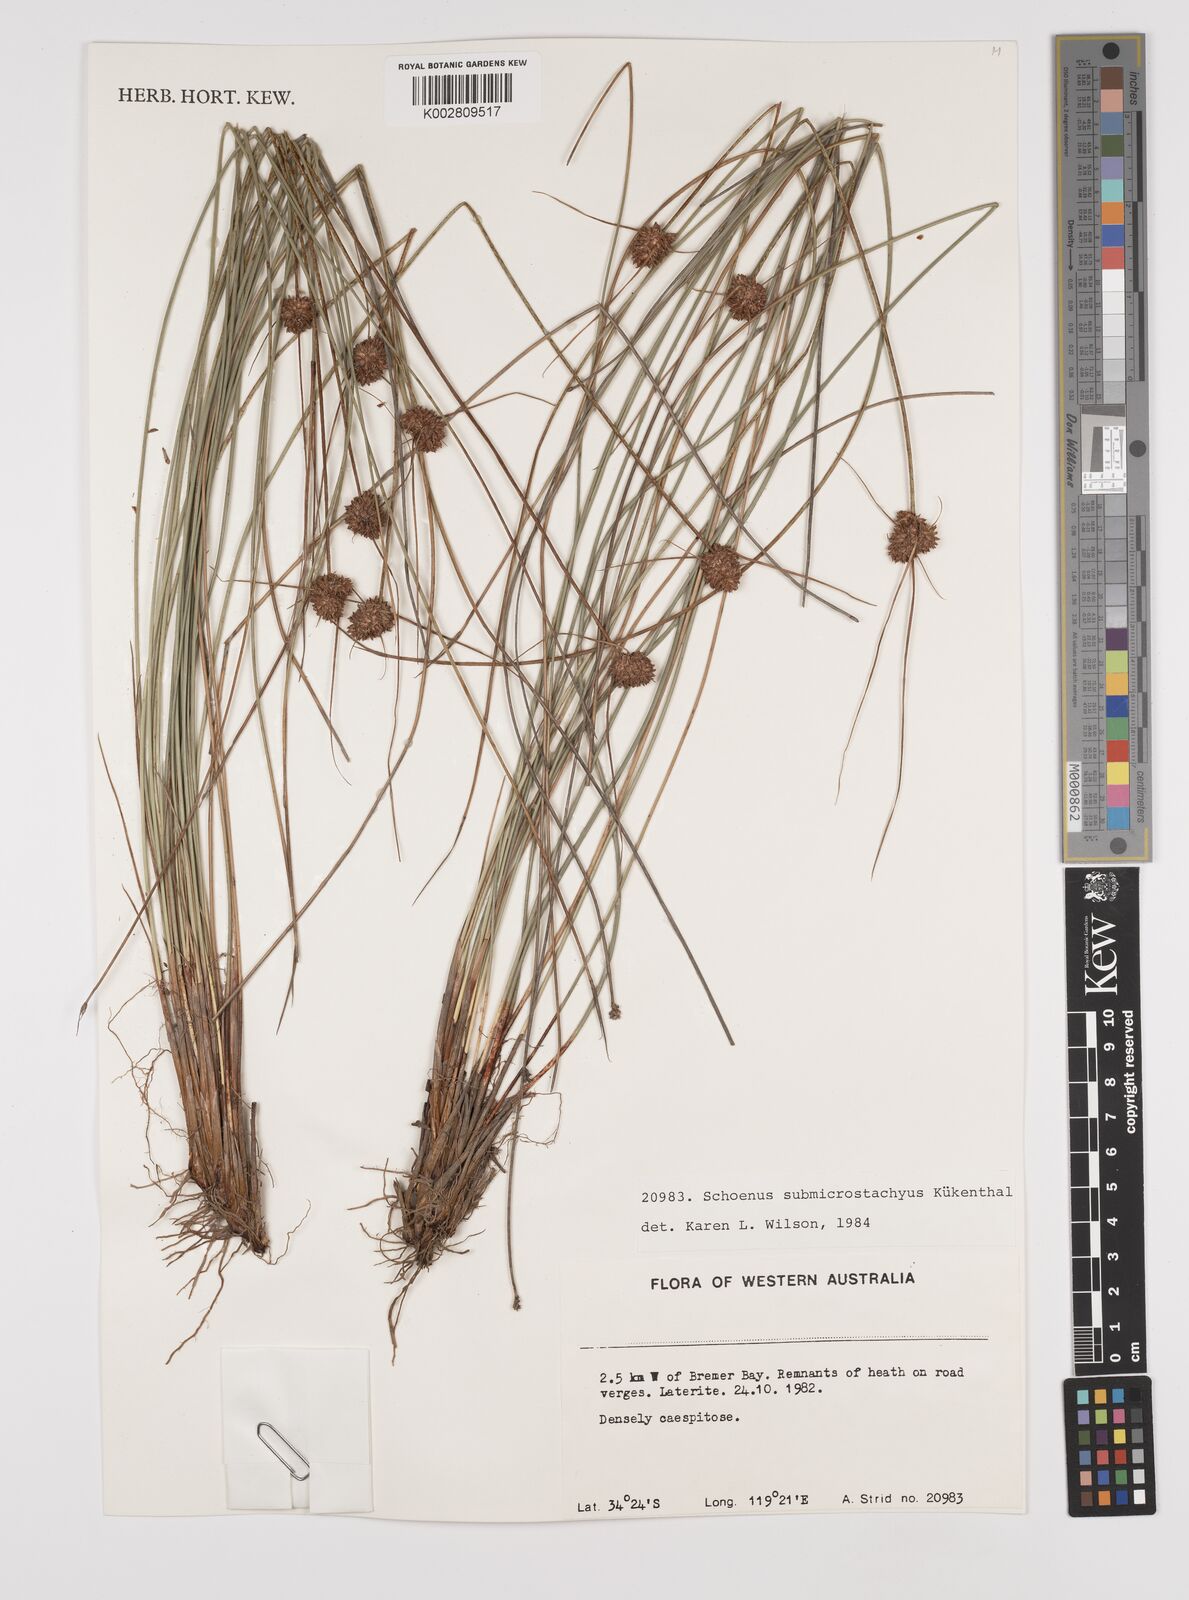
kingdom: Plantae
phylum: Tracheophyta
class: Liliopsida
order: Poales
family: Cyperaceae
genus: Schoenus
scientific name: Schoenus submicrostachyus
